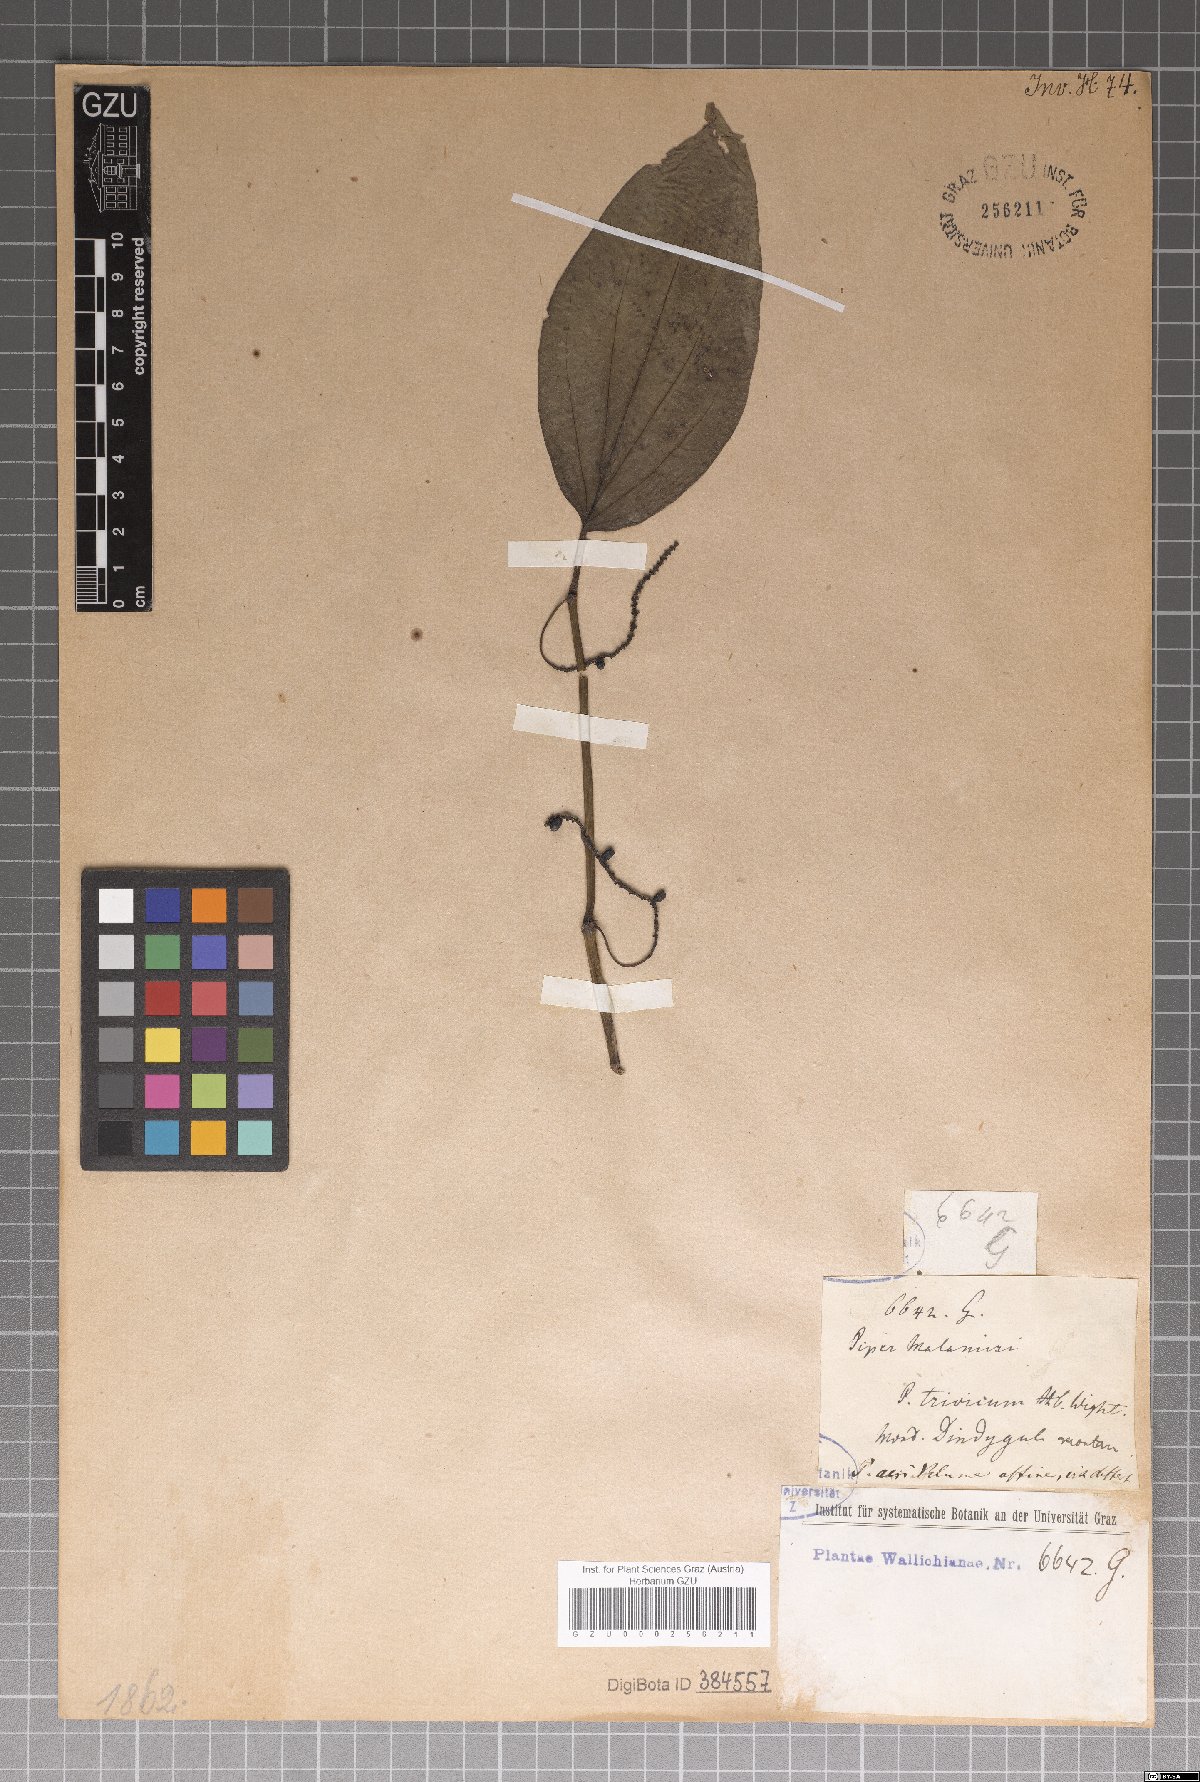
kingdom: Plantae
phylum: Tracheophyta
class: Magnoliopsida
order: Piperales
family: Piperaceae
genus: Piper
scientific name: Piper betle
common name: Betel pepper
